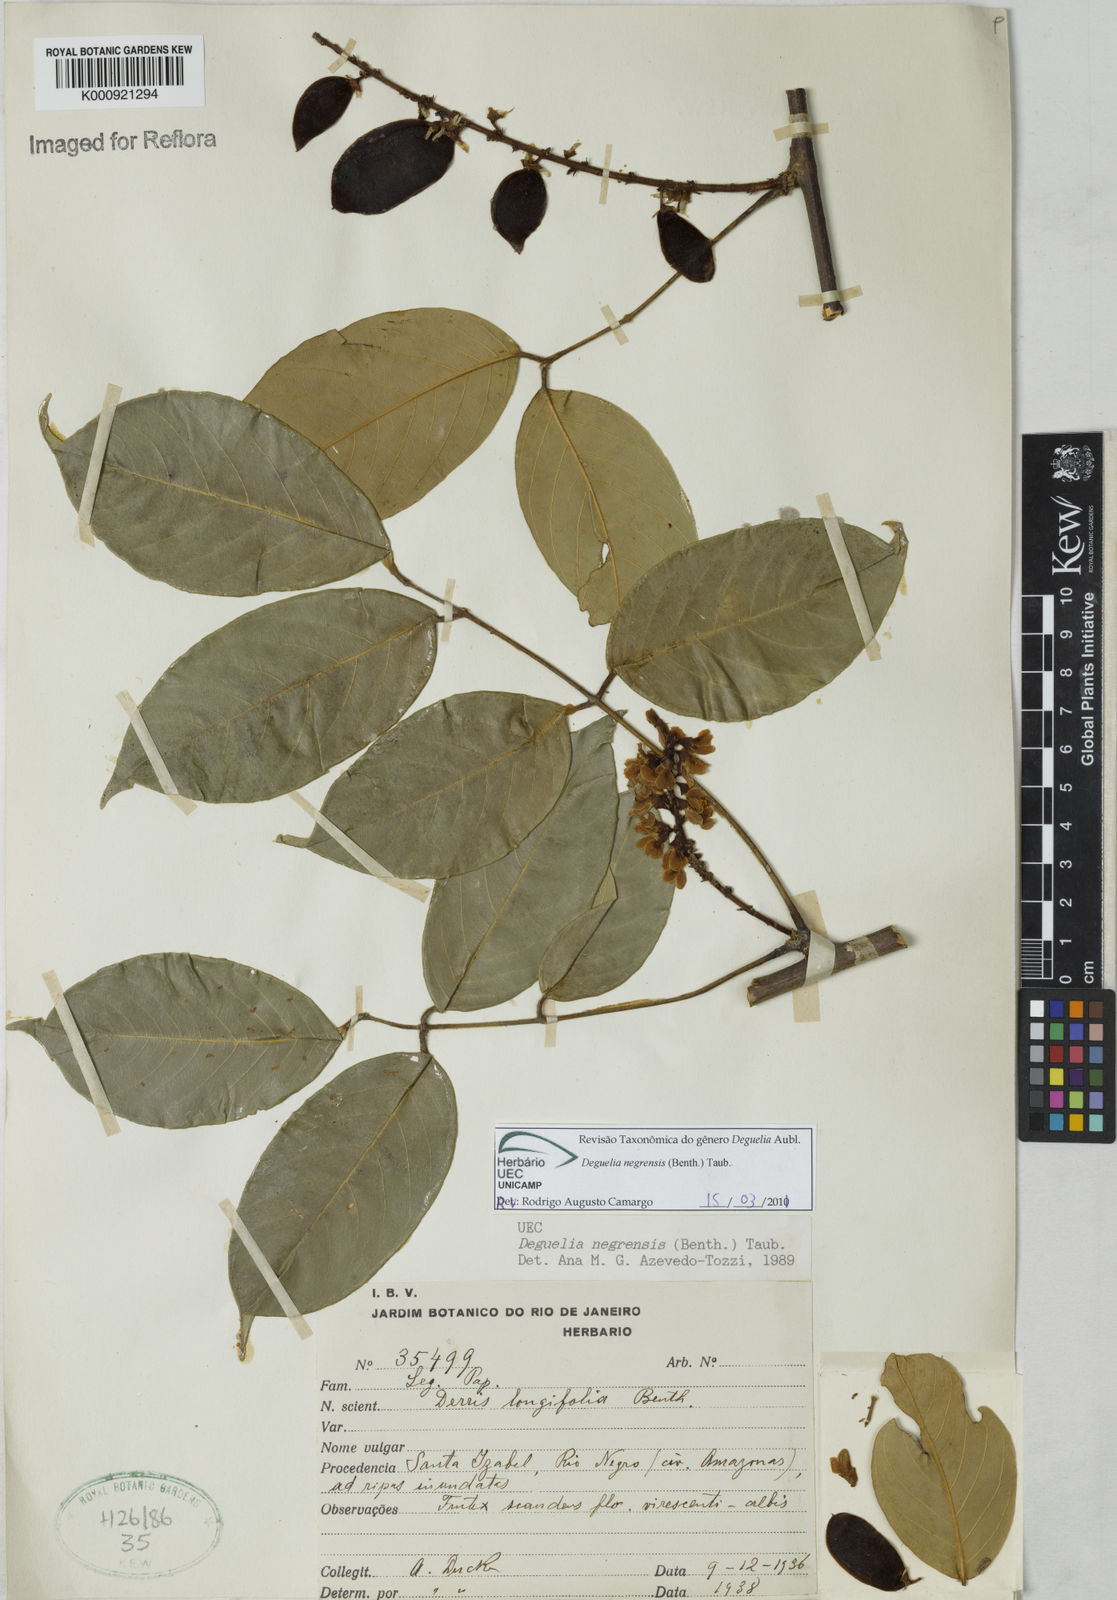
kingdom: Plantae
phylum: Tracheophyta
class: Magnoliopsida
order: Fabales
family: Fabaceae
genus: Deguelia
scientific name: Deguelia negrensis
